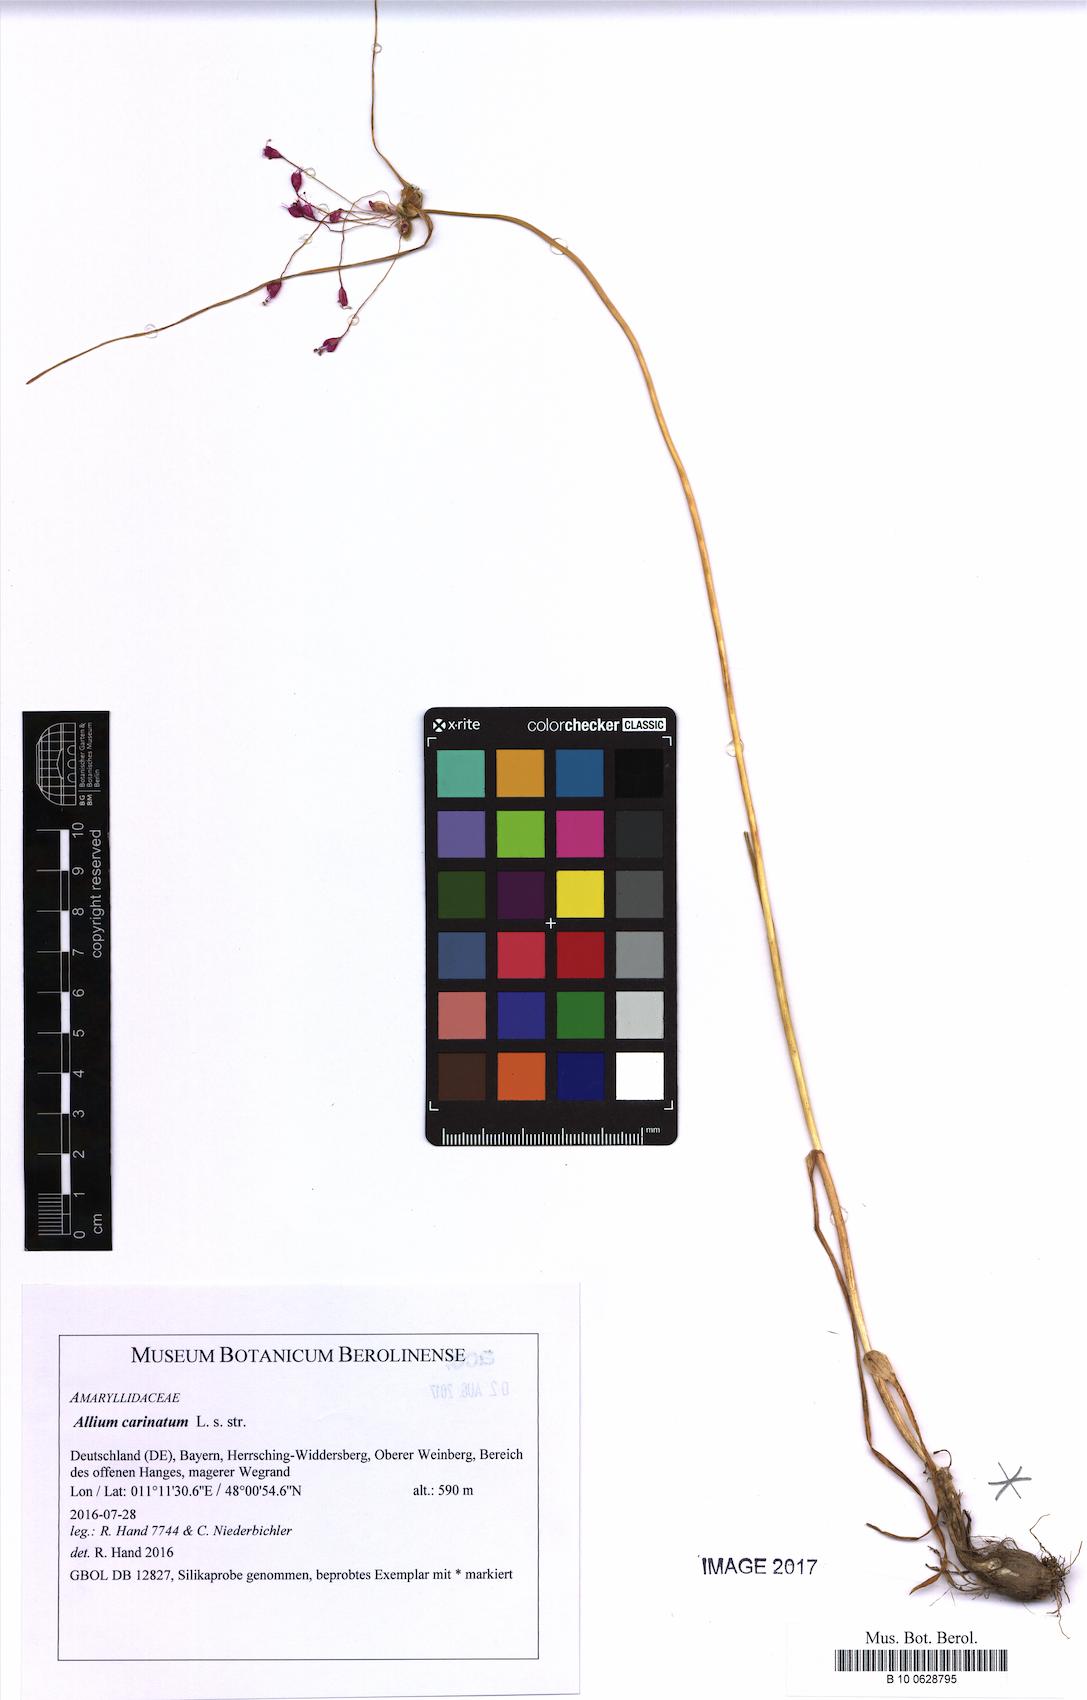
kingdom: Plantae
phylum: Tracheophyta
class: Liliopsida
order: Asparagales
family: Amaryllidaceae
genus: Allium
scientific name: Allium carinatum
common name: Keeled garlic
